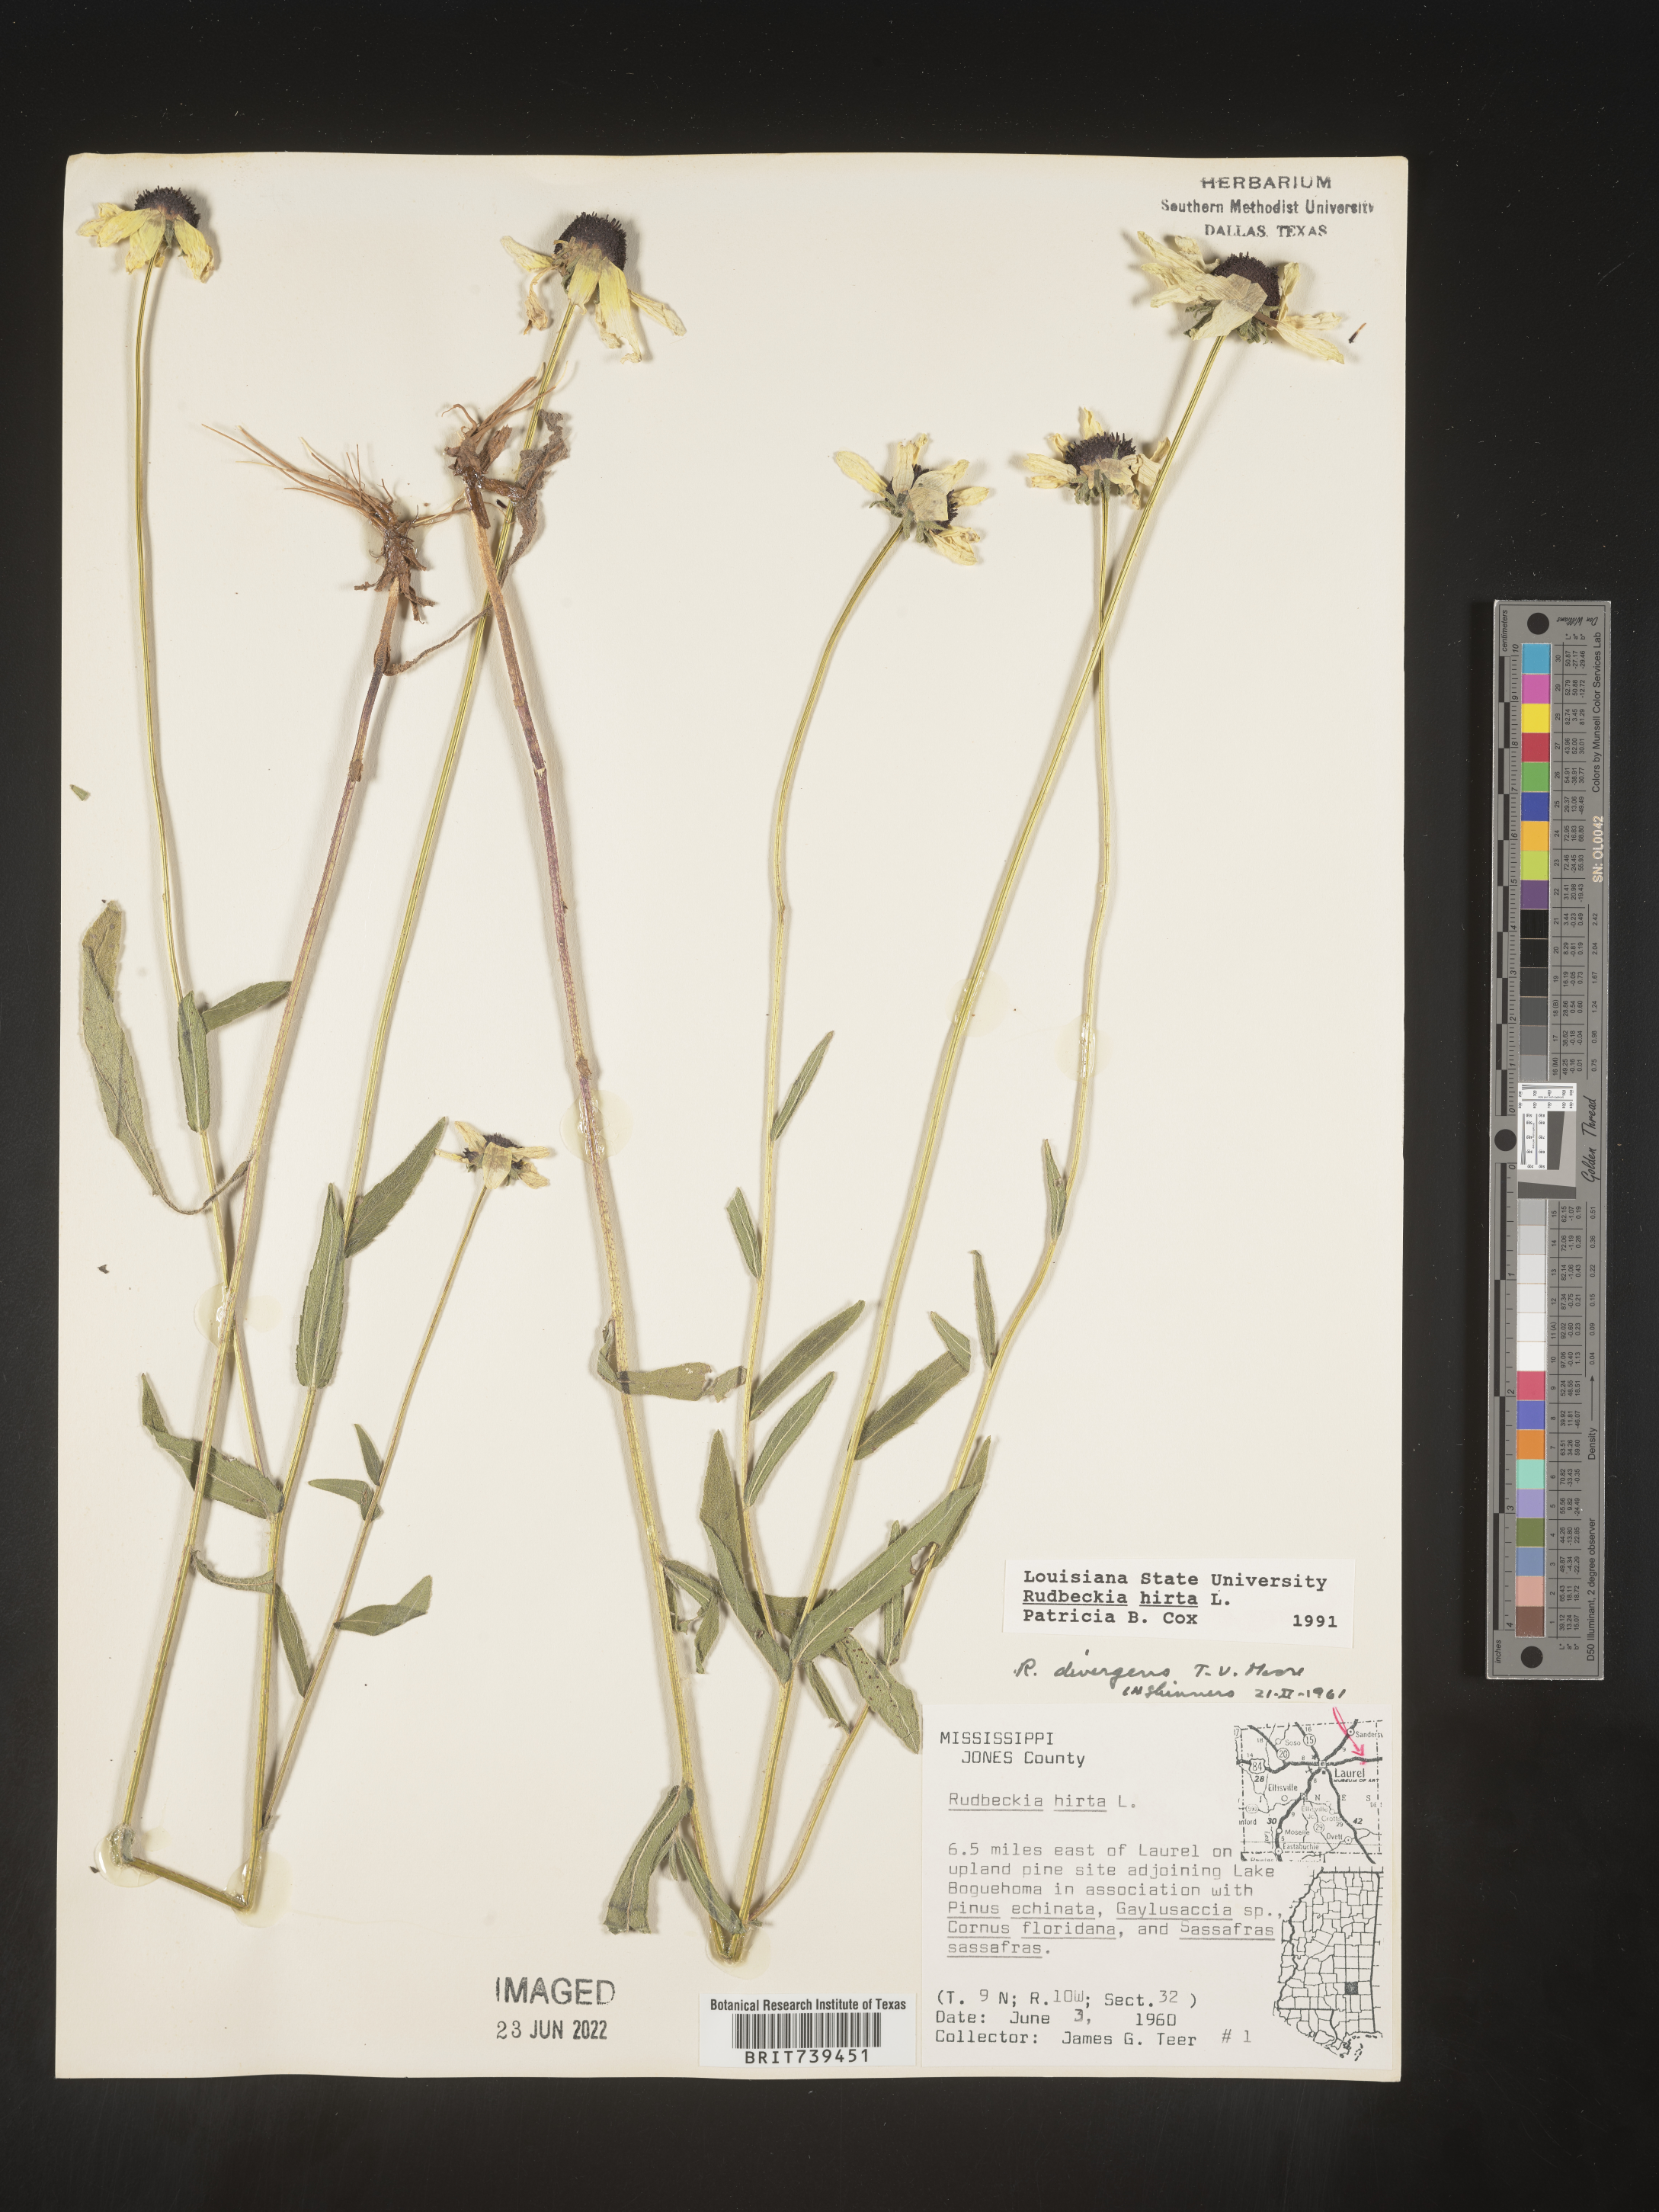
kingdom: Plantae
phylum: Tracheophyta
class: Magnoliopsida
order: Asterales
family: Asteraceae
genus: Rudbeckia
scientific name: Rudbeckia hirta
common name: Black-eyed-susan
